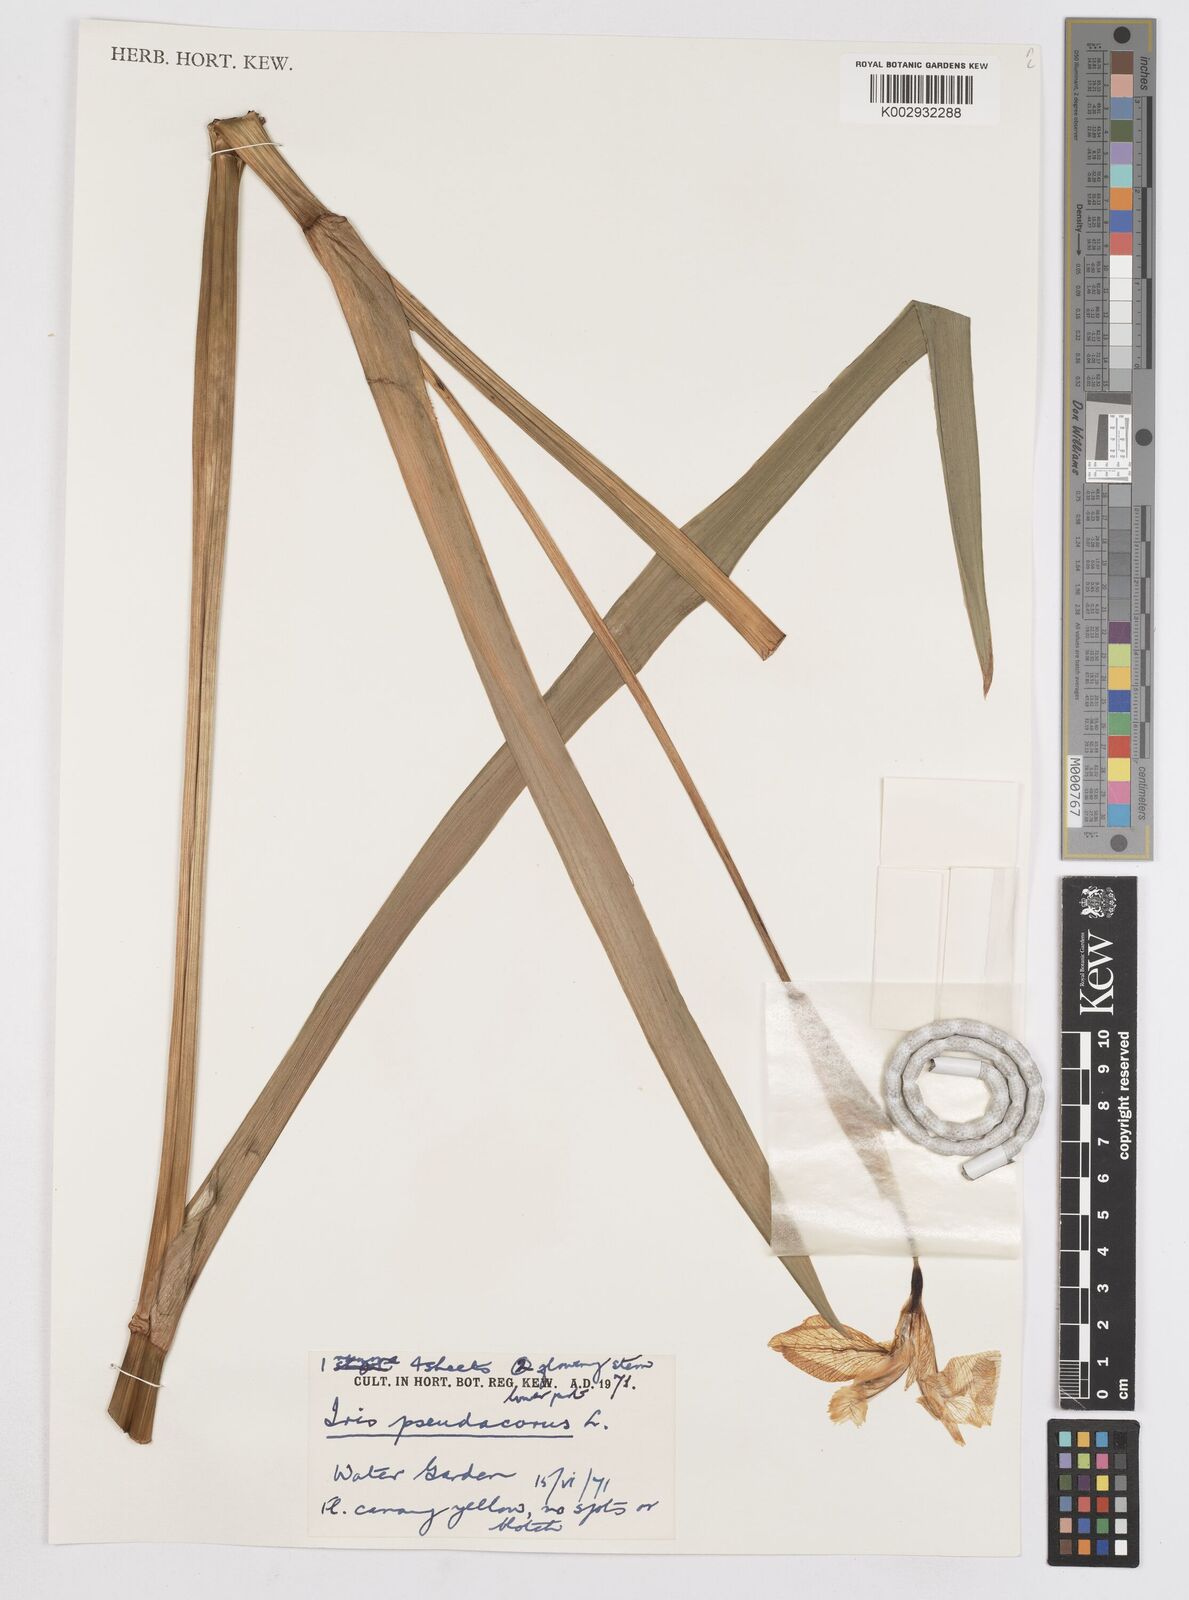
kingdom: Plantae
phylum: Tracheophyta
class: Liliopsida
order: Asparagales
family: Iridaceae
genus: Iris
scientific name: Iris pseudacorus
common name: Yellow flag
